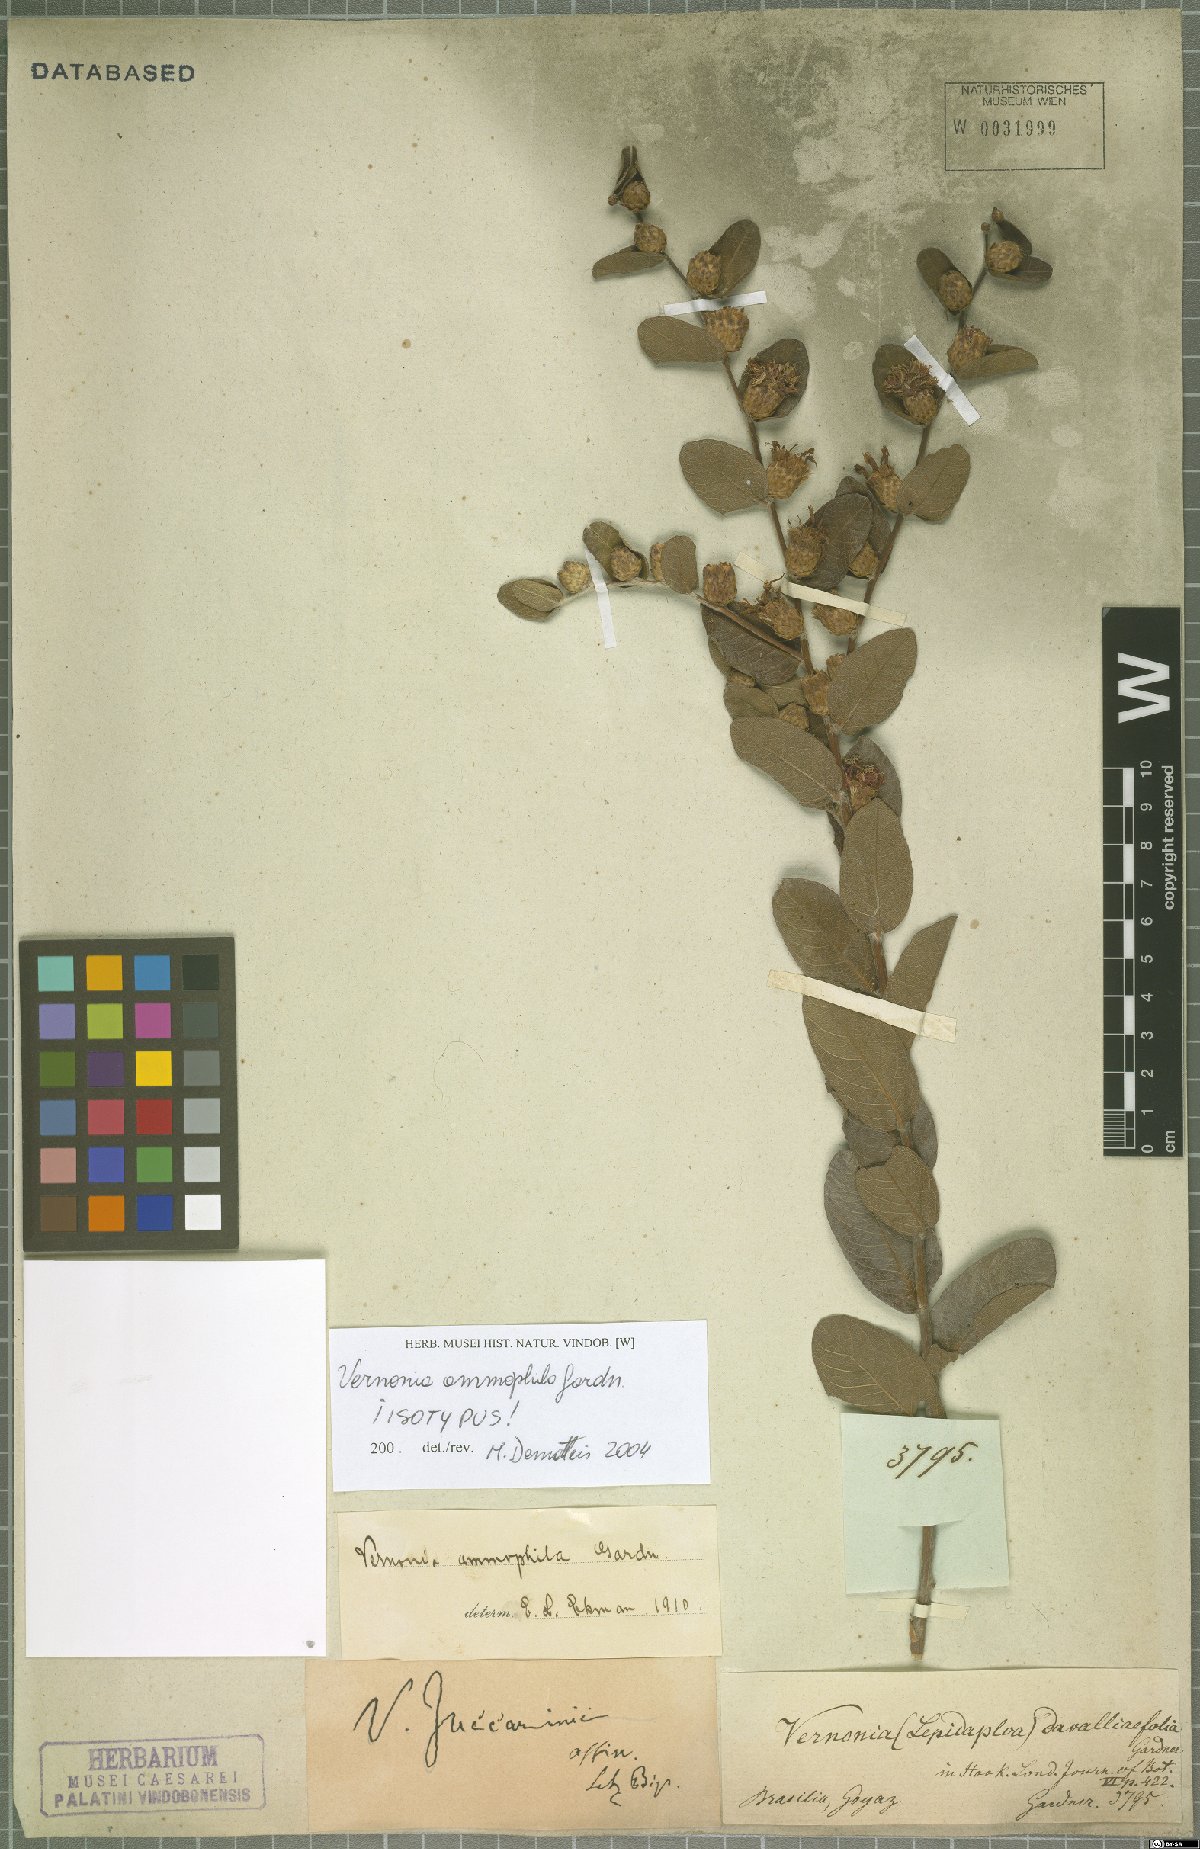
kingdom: Plantae
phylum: Tracheophyta
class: Magnoliopsida
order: Asterales
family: Asteraceae
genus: Lessingianthus
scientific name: Lessingianthus ammophilus
